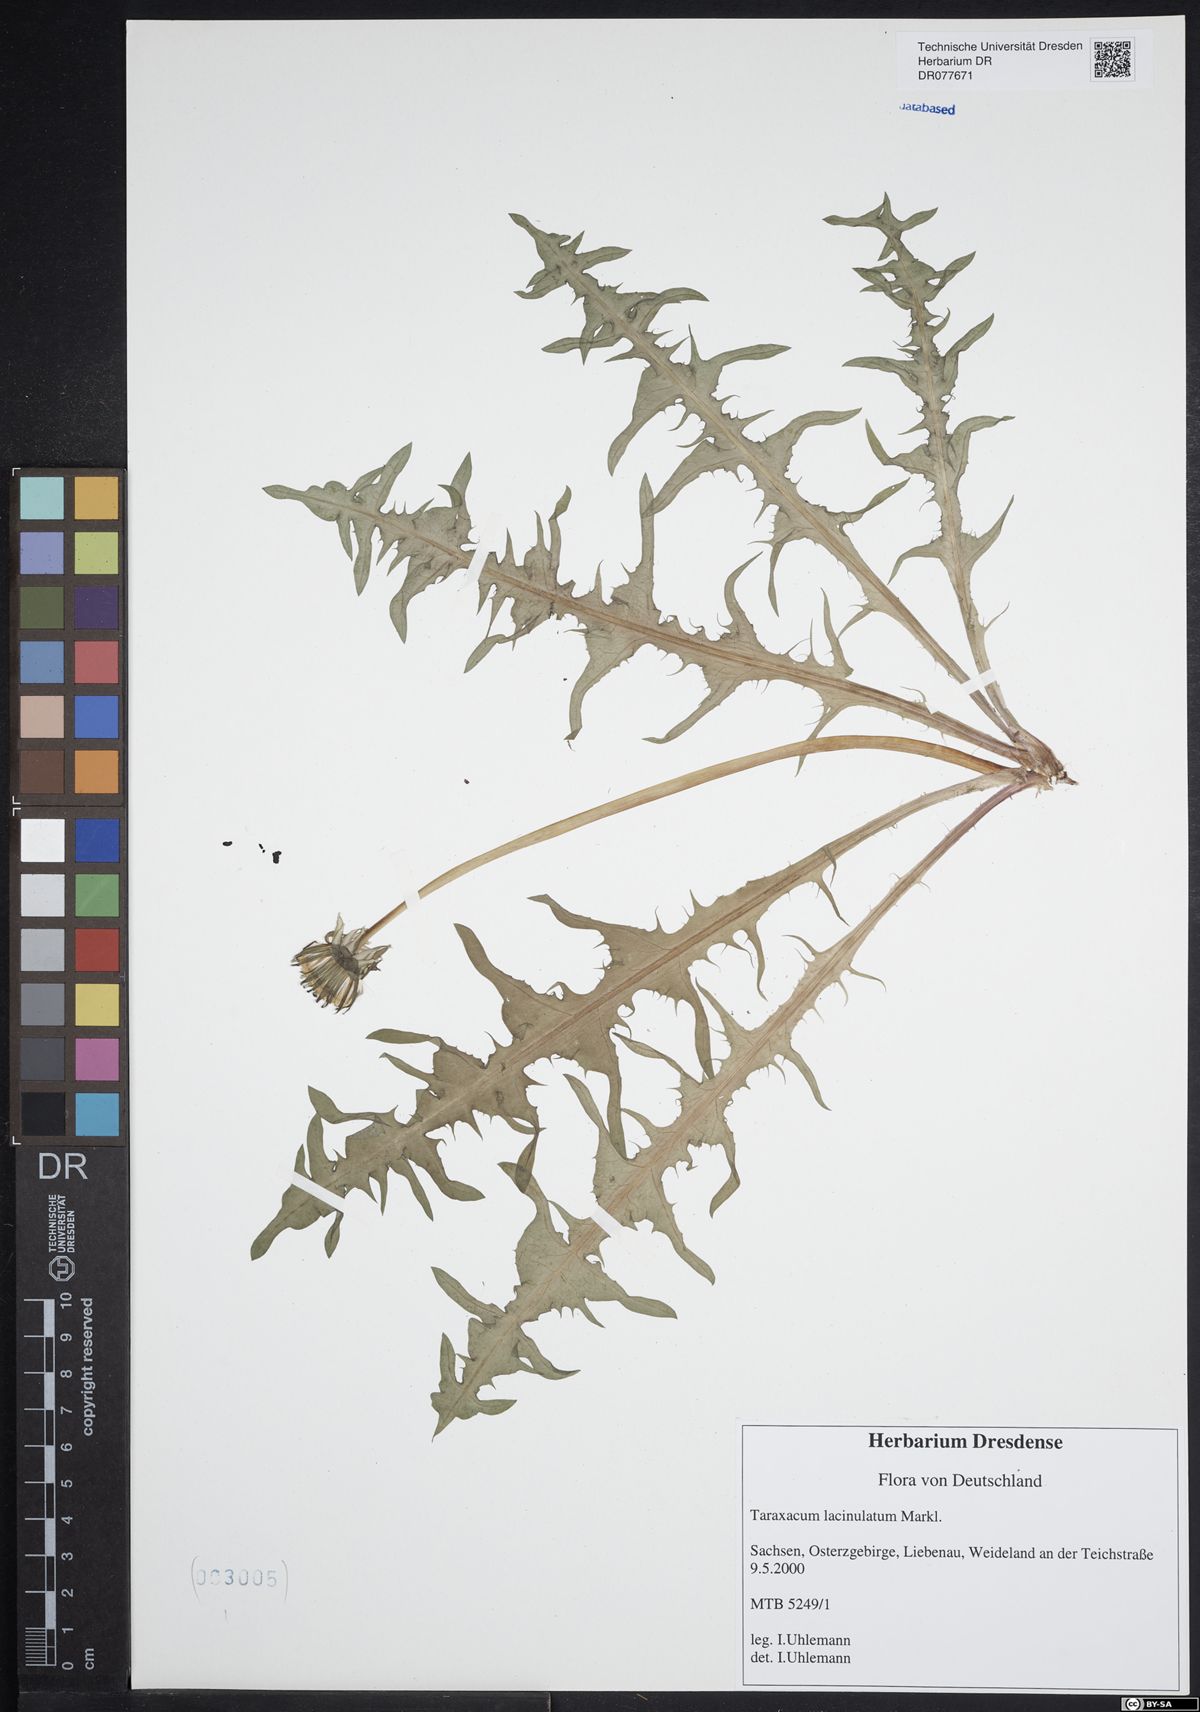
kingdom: Plantae
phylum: Tracheophyta
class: Magnoliopsida
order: Asterales
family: Asteraceae
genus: Taraxacum
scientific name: Taraxacum lacinulatum
